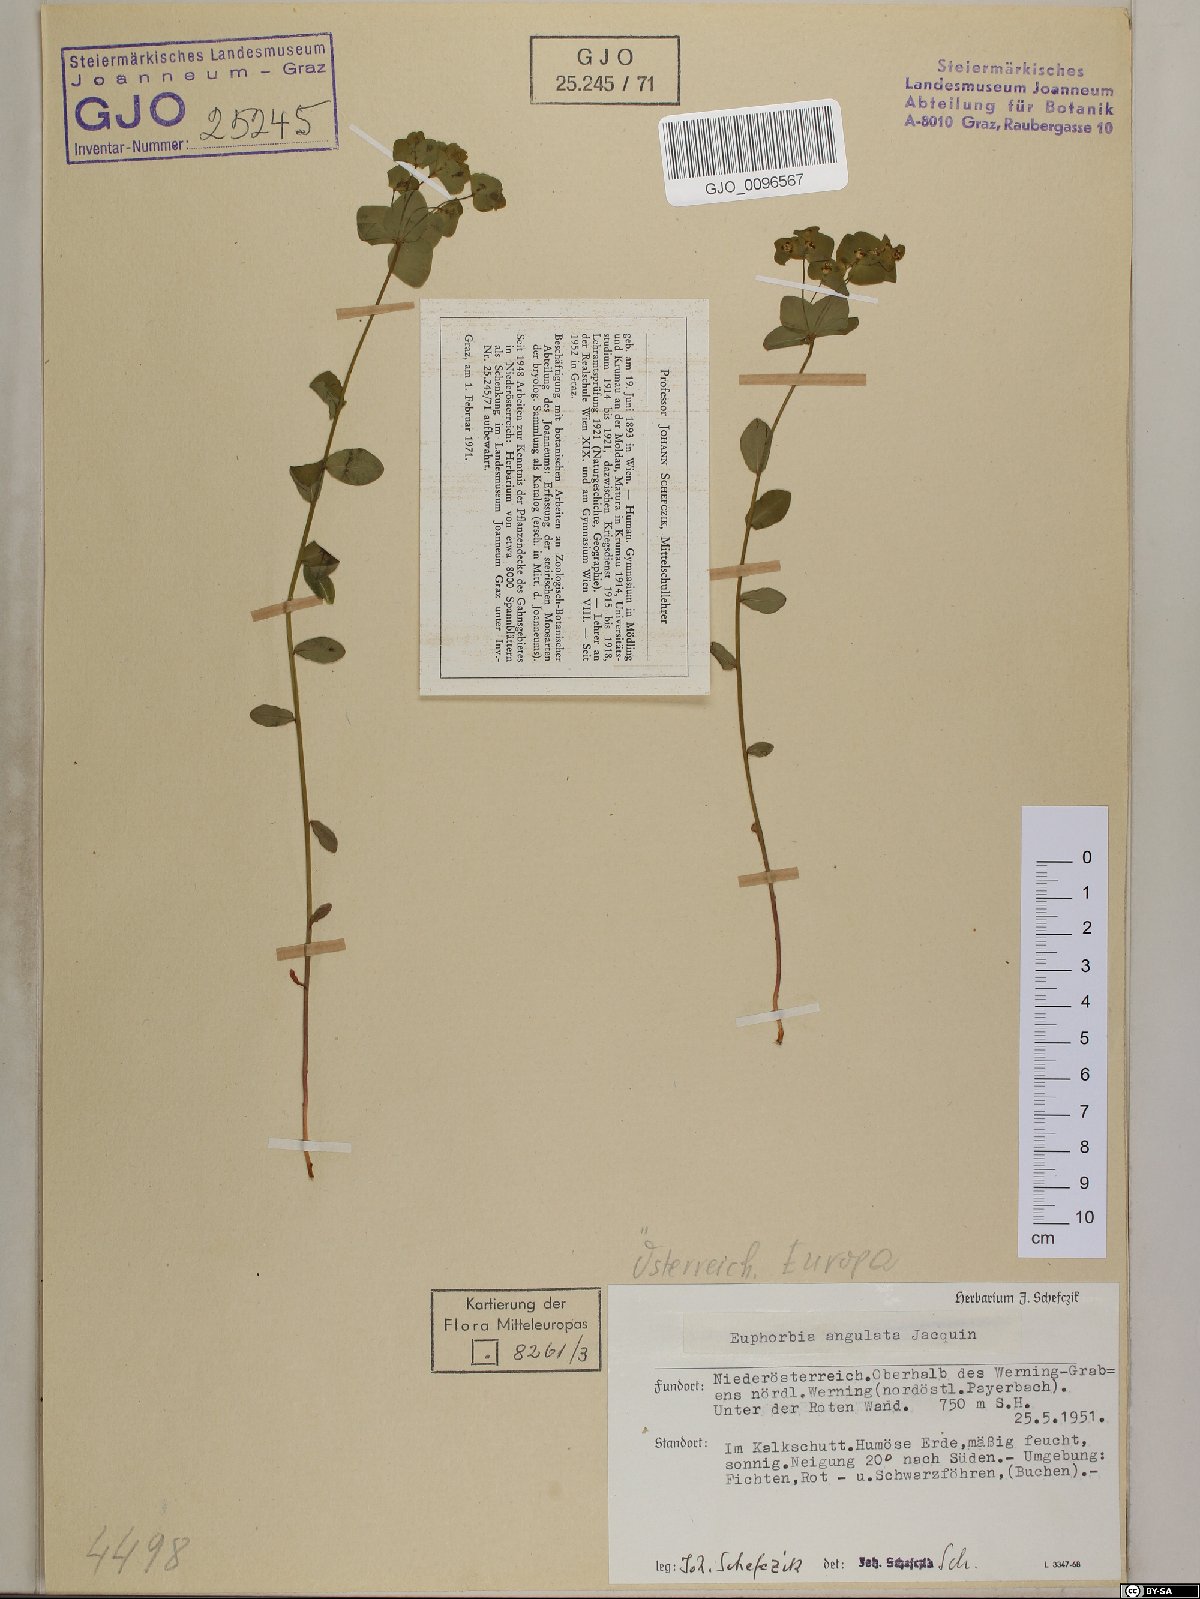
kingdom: Plantae
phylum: Tracheophyta
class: Magnoliopsida
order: Malpighiales
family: Euphorbiaceae
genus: Euphorbia
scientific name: Euphorbia angulata
